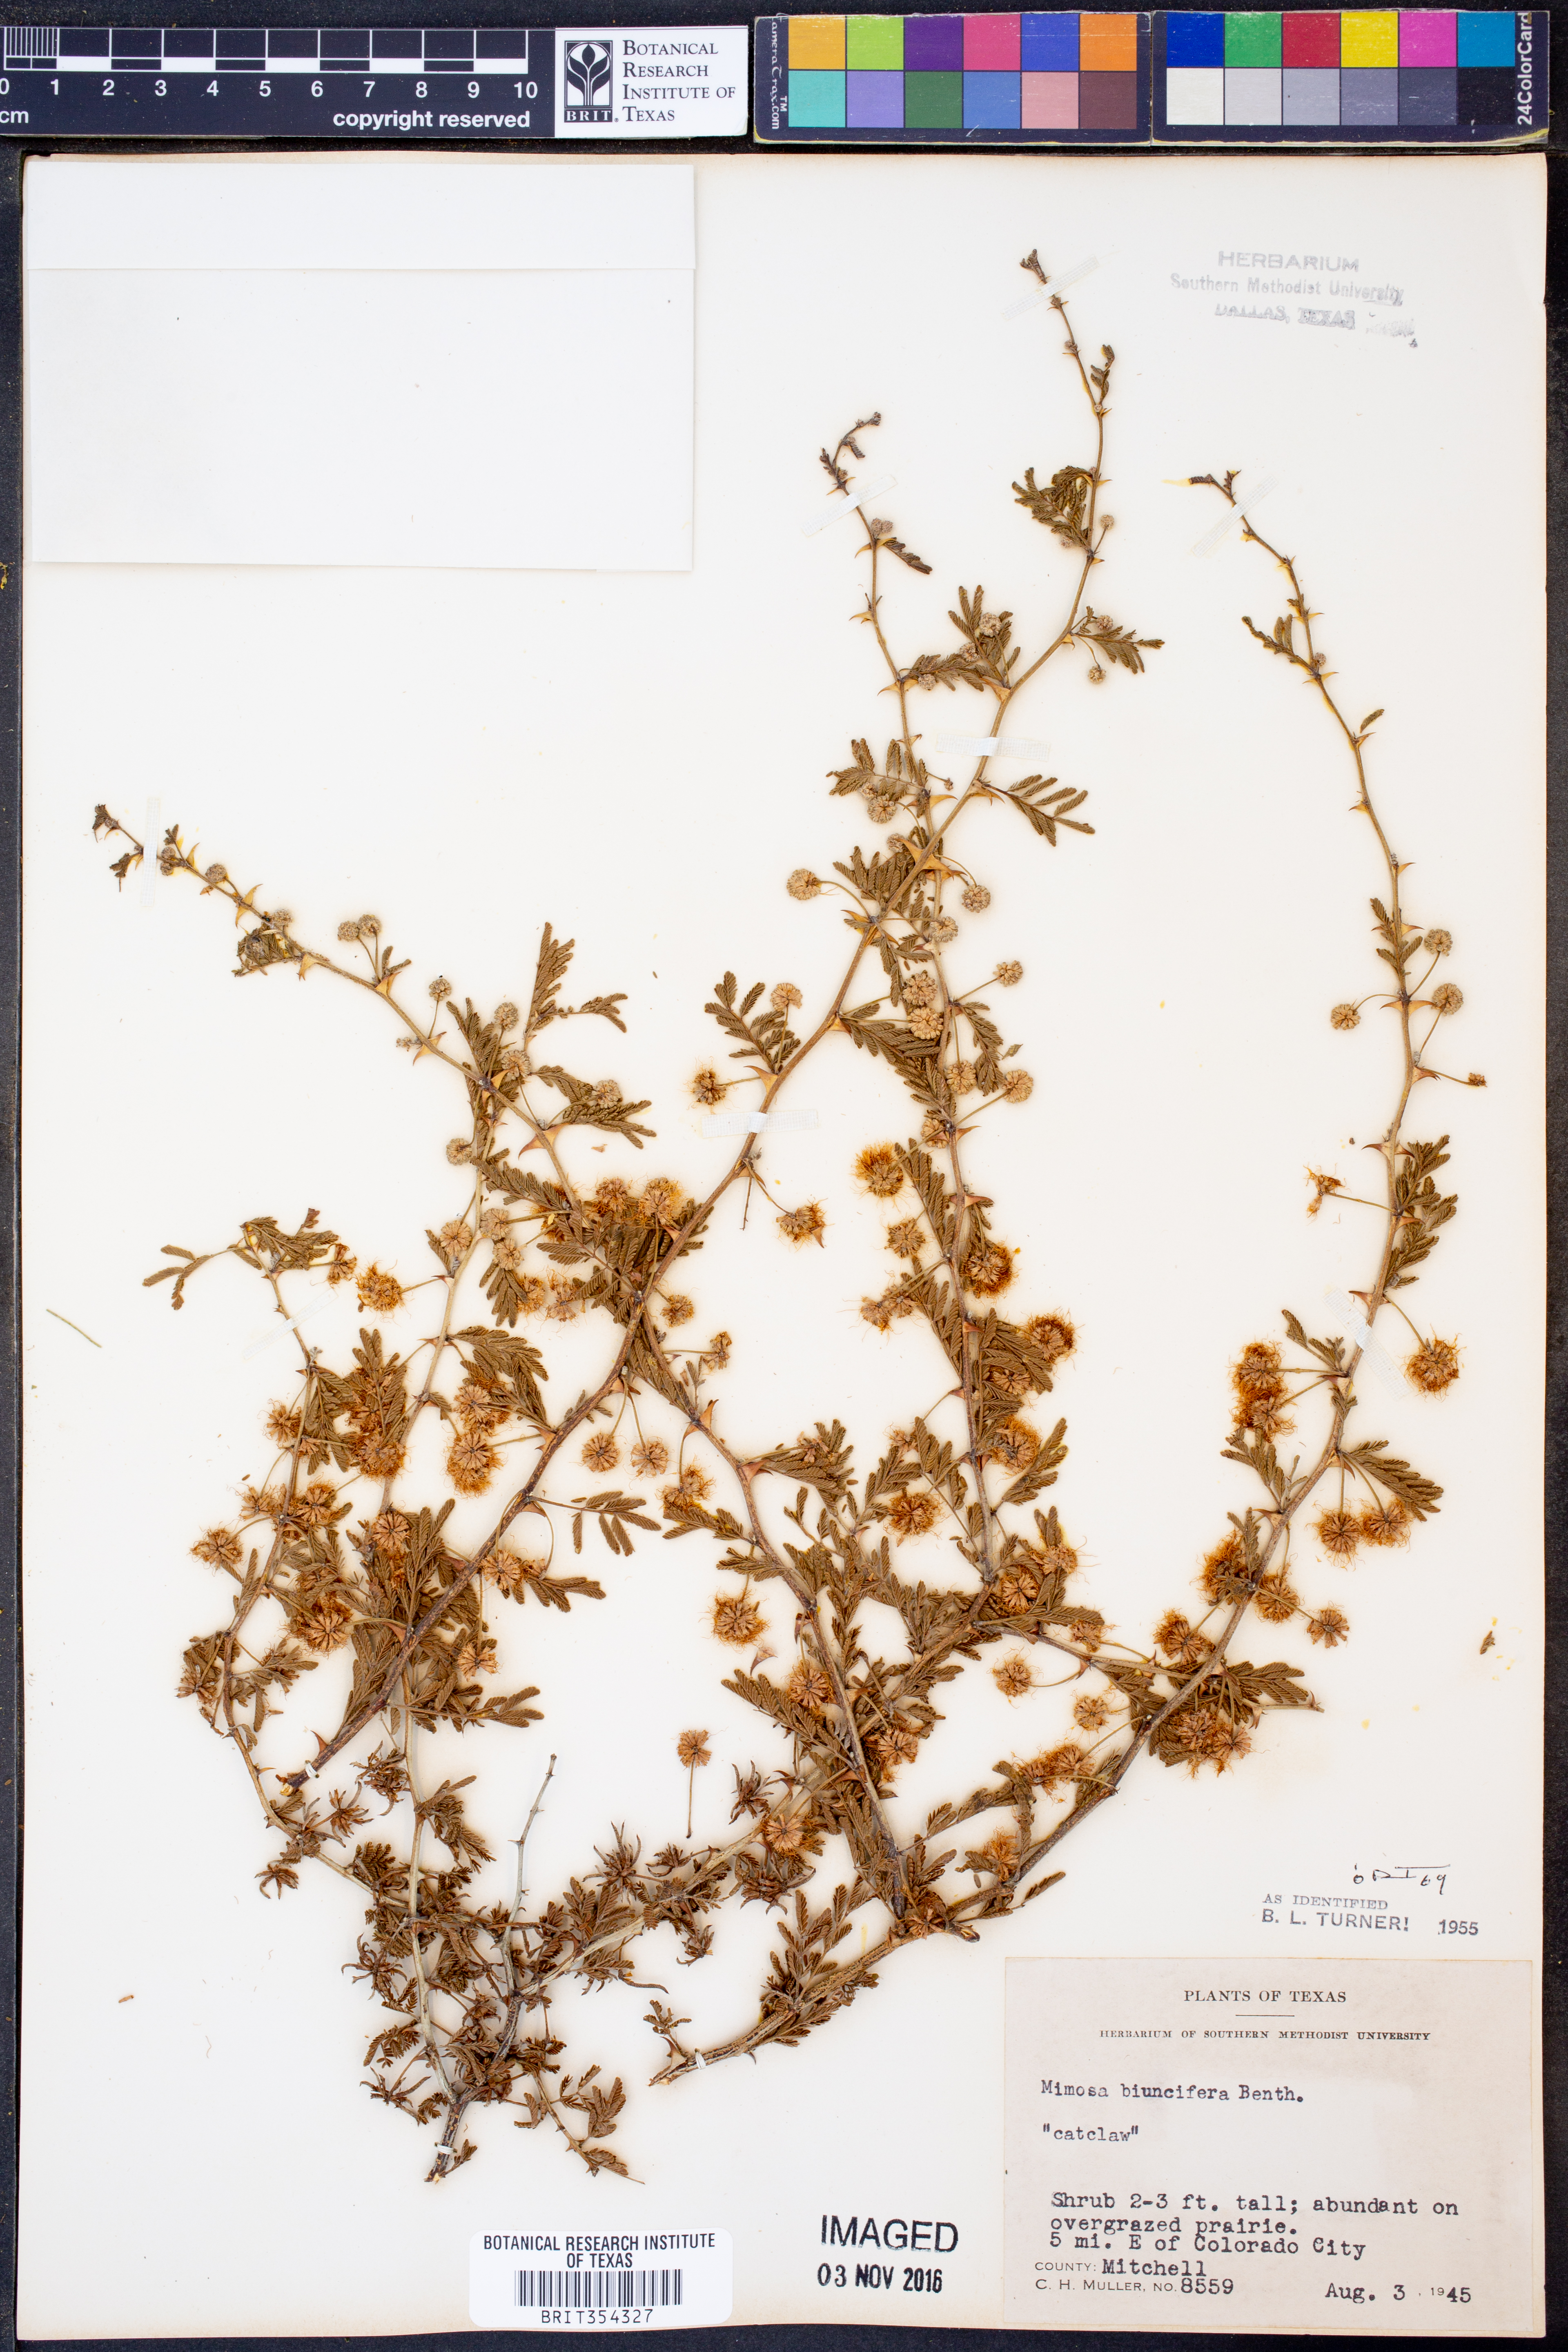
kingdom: Plantae
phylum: Tracheophyta
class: Magnoliopsida
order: Fabales
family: Fabaceae
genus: Mimosa
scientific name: Mimosa biuncifera
